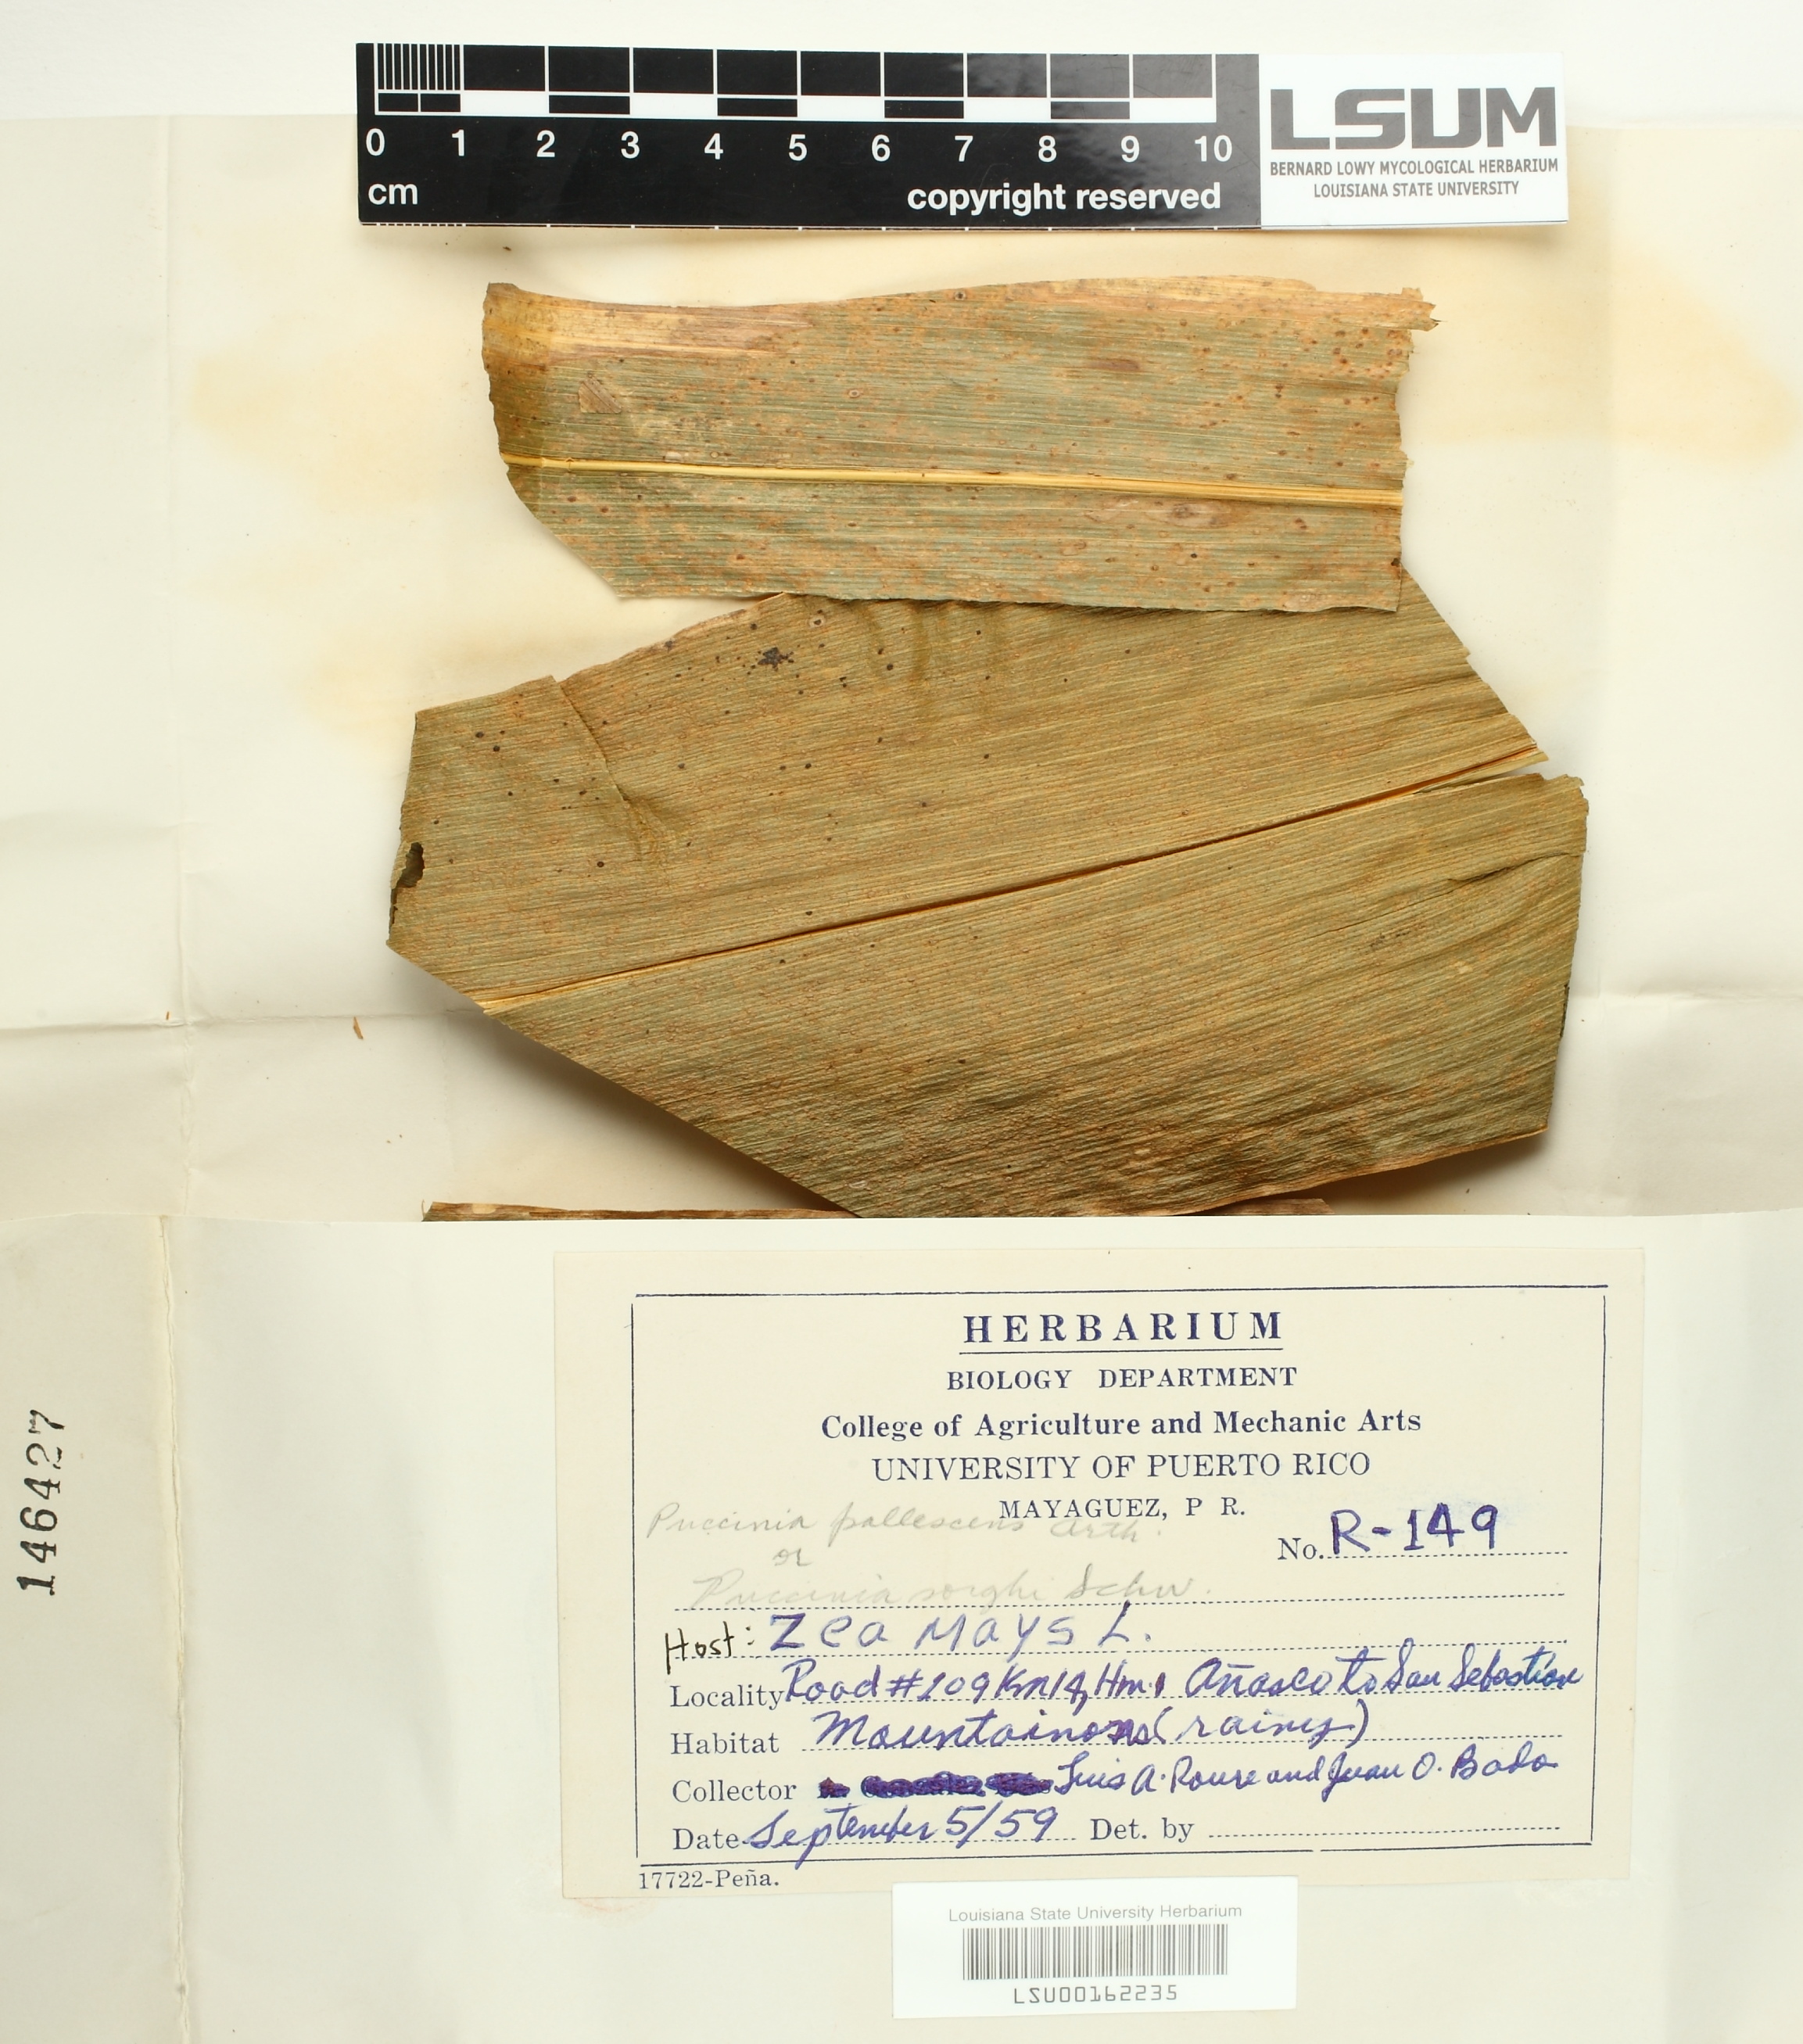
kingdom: Fungi
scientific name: Fungi
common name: Fungi
